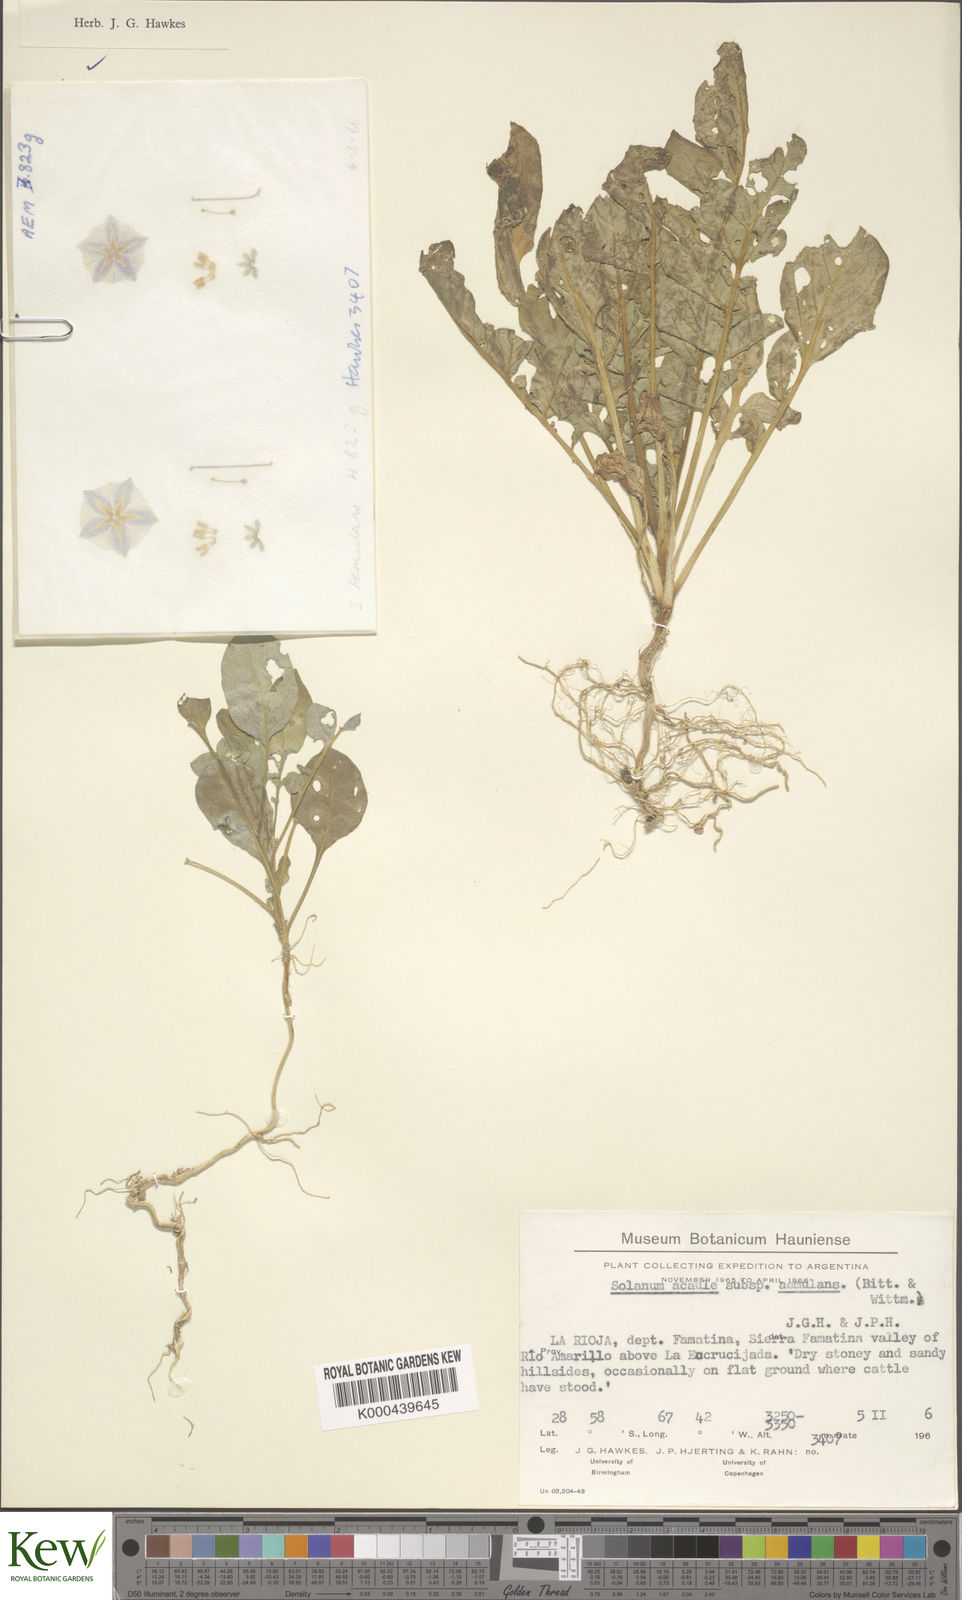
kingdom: Plantae
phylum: Tracheophyta
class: Magnoliopsida
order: Solanales
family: Solanaceae
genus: Solanum
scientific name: Solanum aemulans
